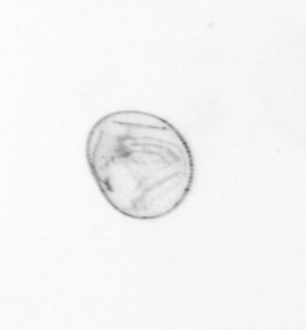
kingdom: Chromista
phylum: Myzozoa
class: Dinophyceae
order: Noctilucales
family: Noctilucaceae
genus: Noctiluca
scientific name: Noctiluca scintillans
